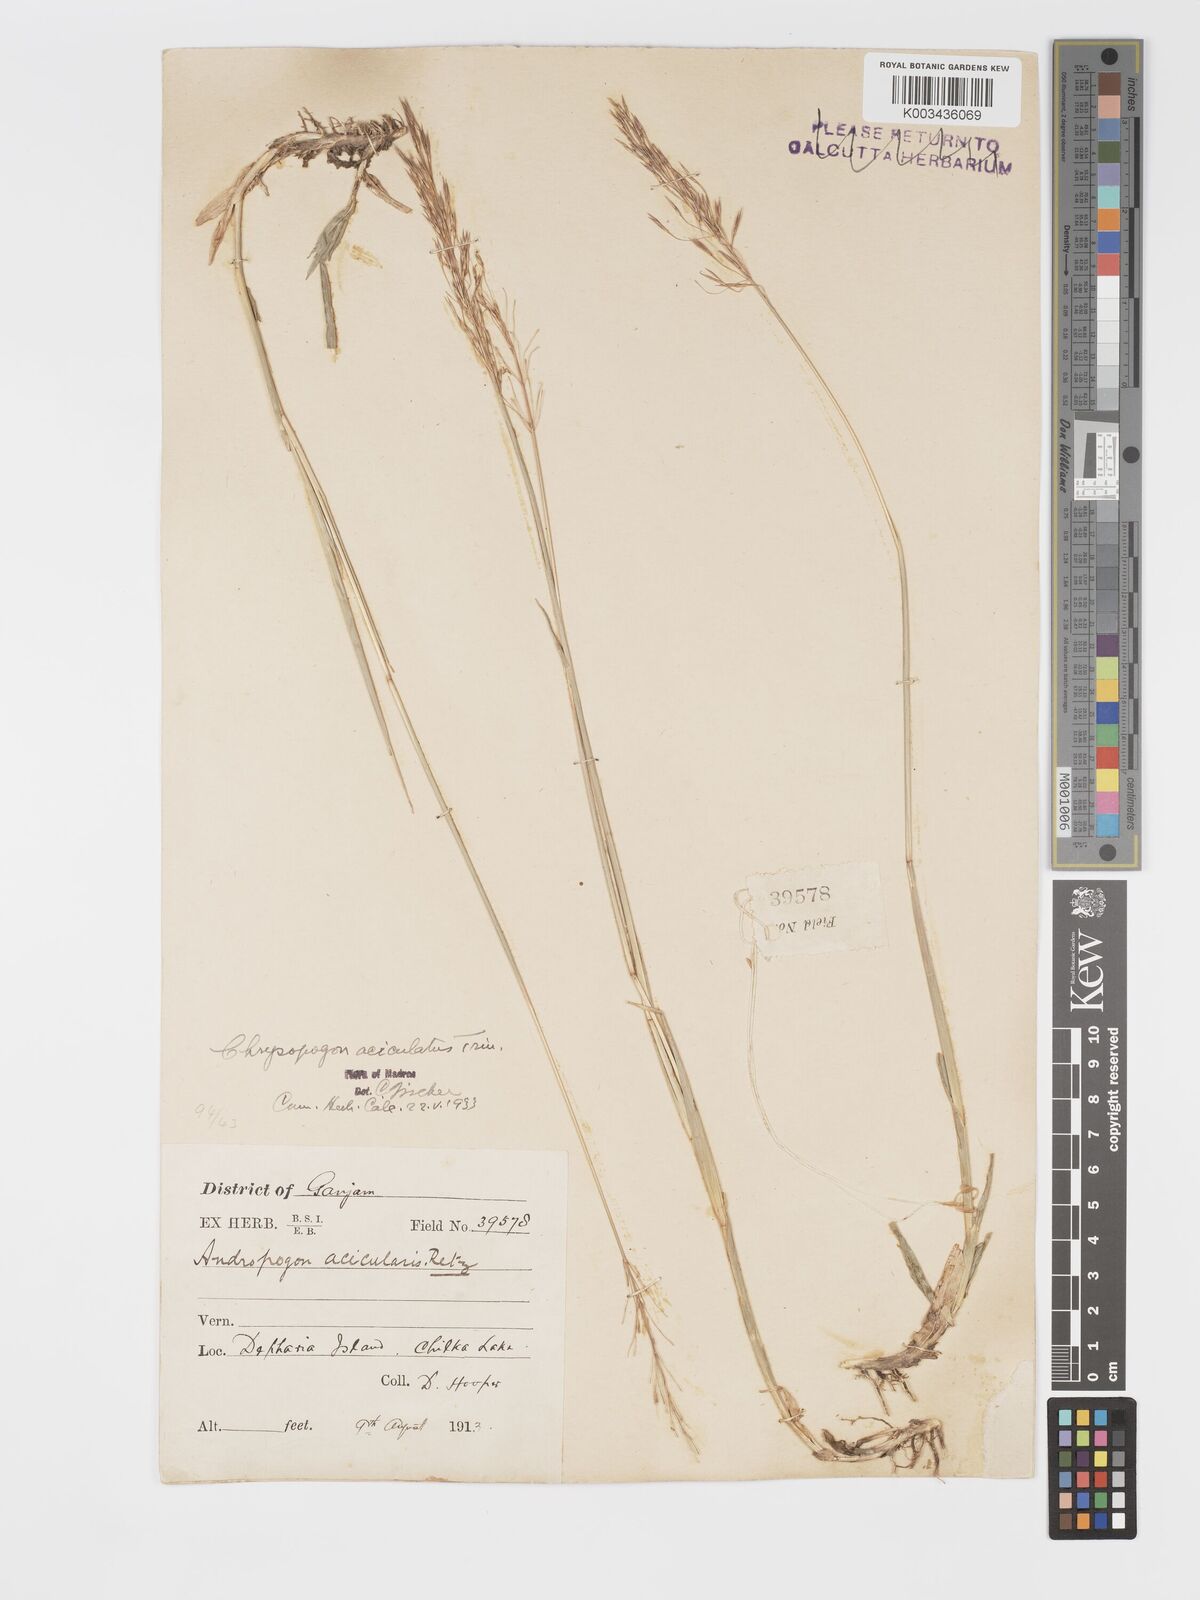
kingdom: Plantae
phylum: Tracheophyta
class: Liliopsida
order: Poales
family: Poaceae
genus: Chrysopogon
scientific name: Chrysopogon aciculatus
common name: Pilipiliula
